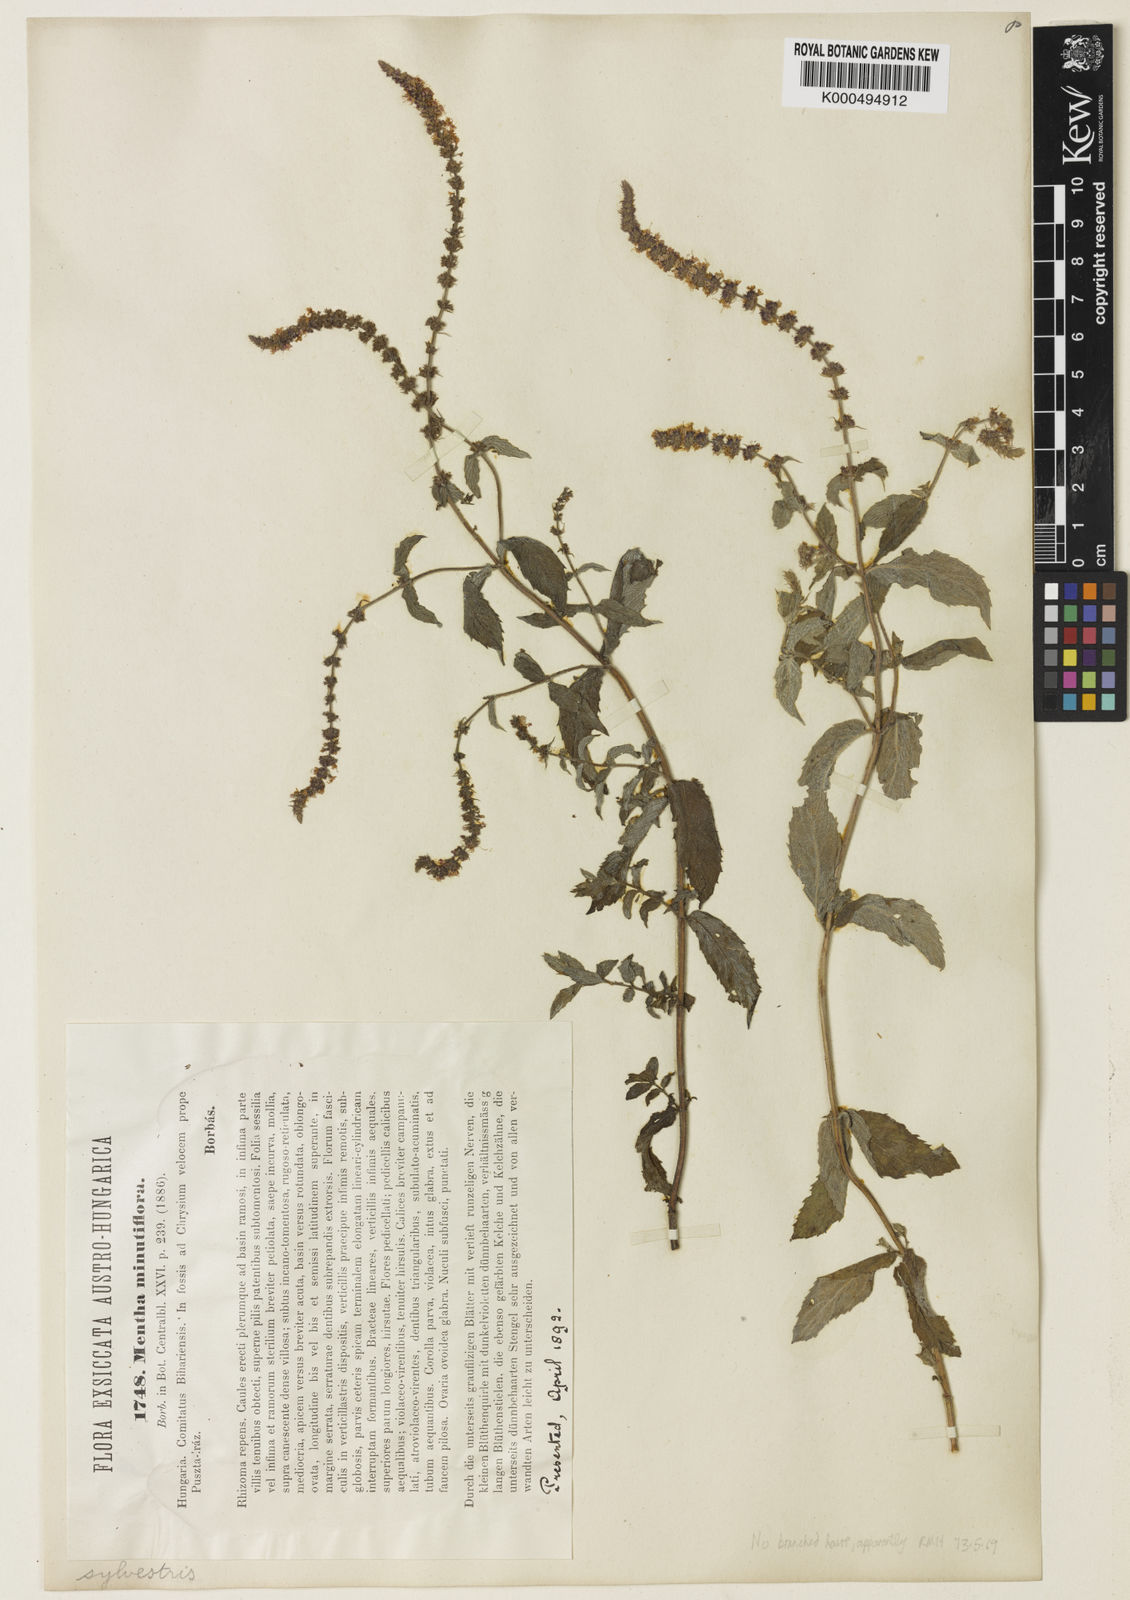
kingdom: Plantae
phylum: Tracheophyta
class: Magnoliopsida
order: Lamiales
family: Lamiaceae
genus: Mentha
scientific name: Mentha spicata
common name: Spearmint
